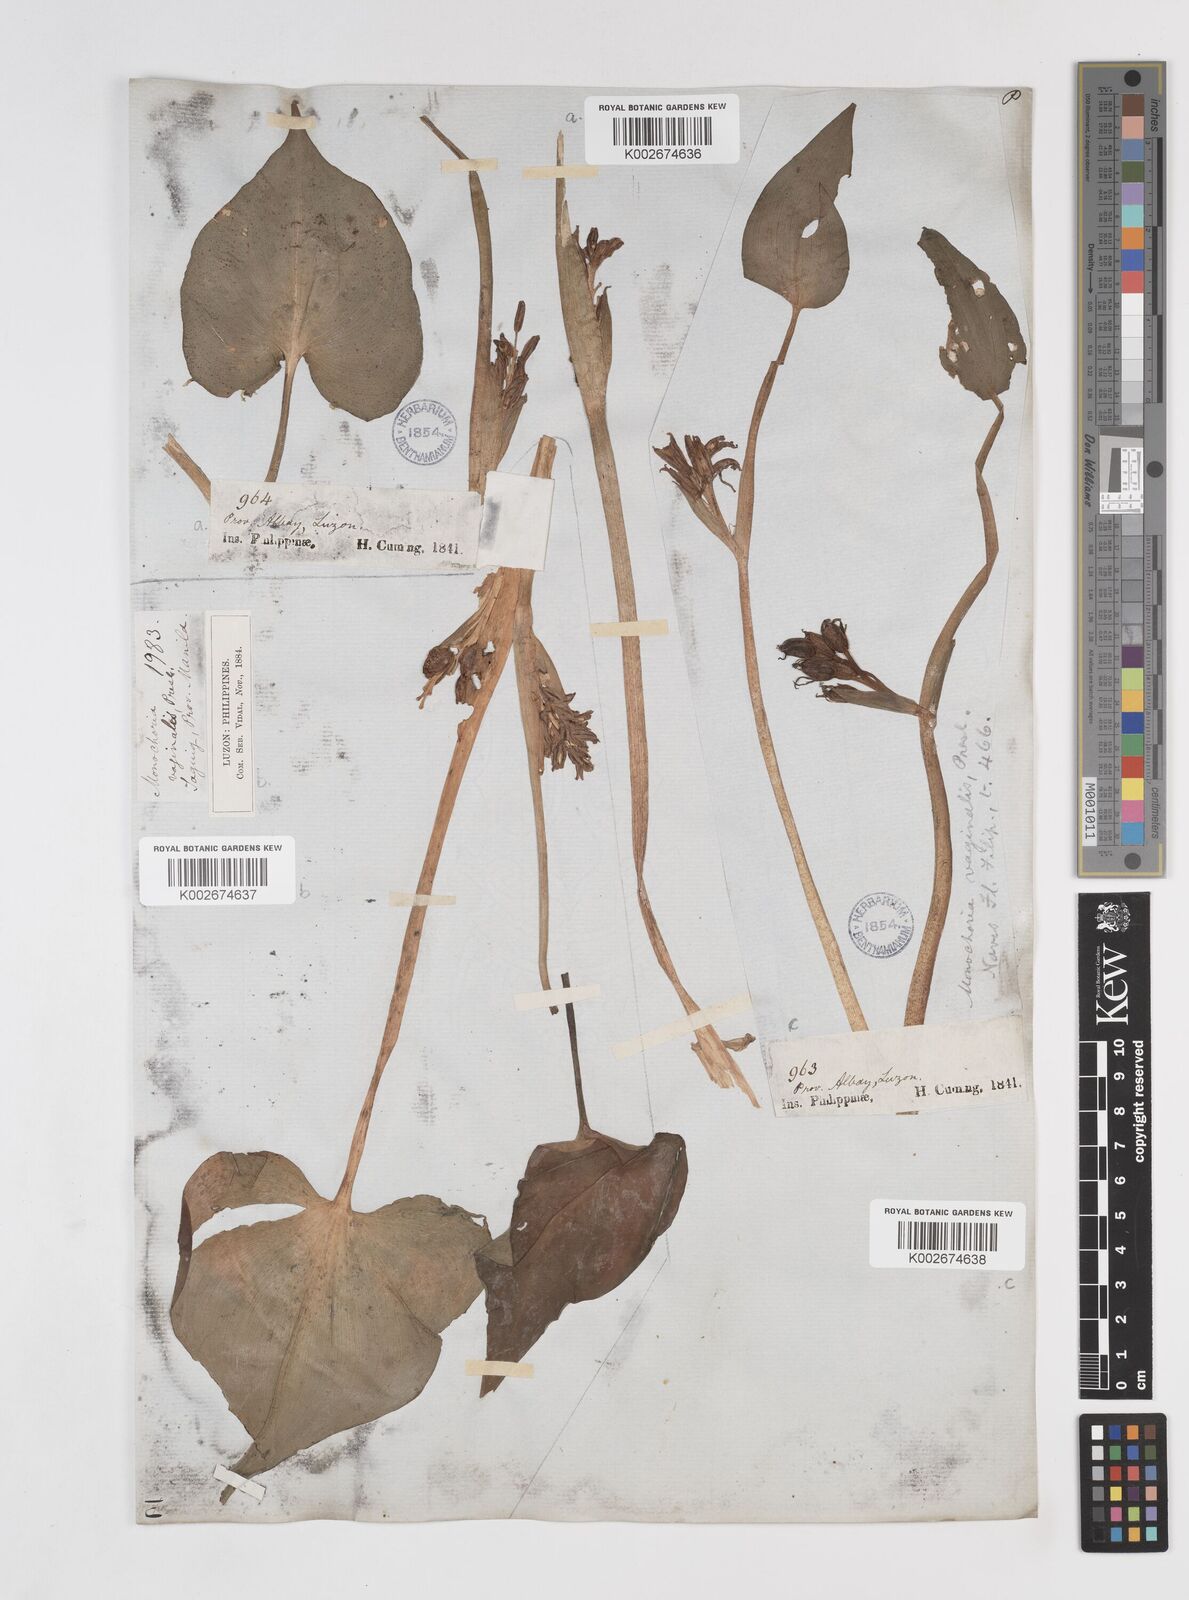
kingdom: Plantae
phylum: Tracheophyta
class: Liliopsida
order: Commelinales
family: Pontederiaceae
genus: Pontederia
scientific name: Pontederia vaginalis
